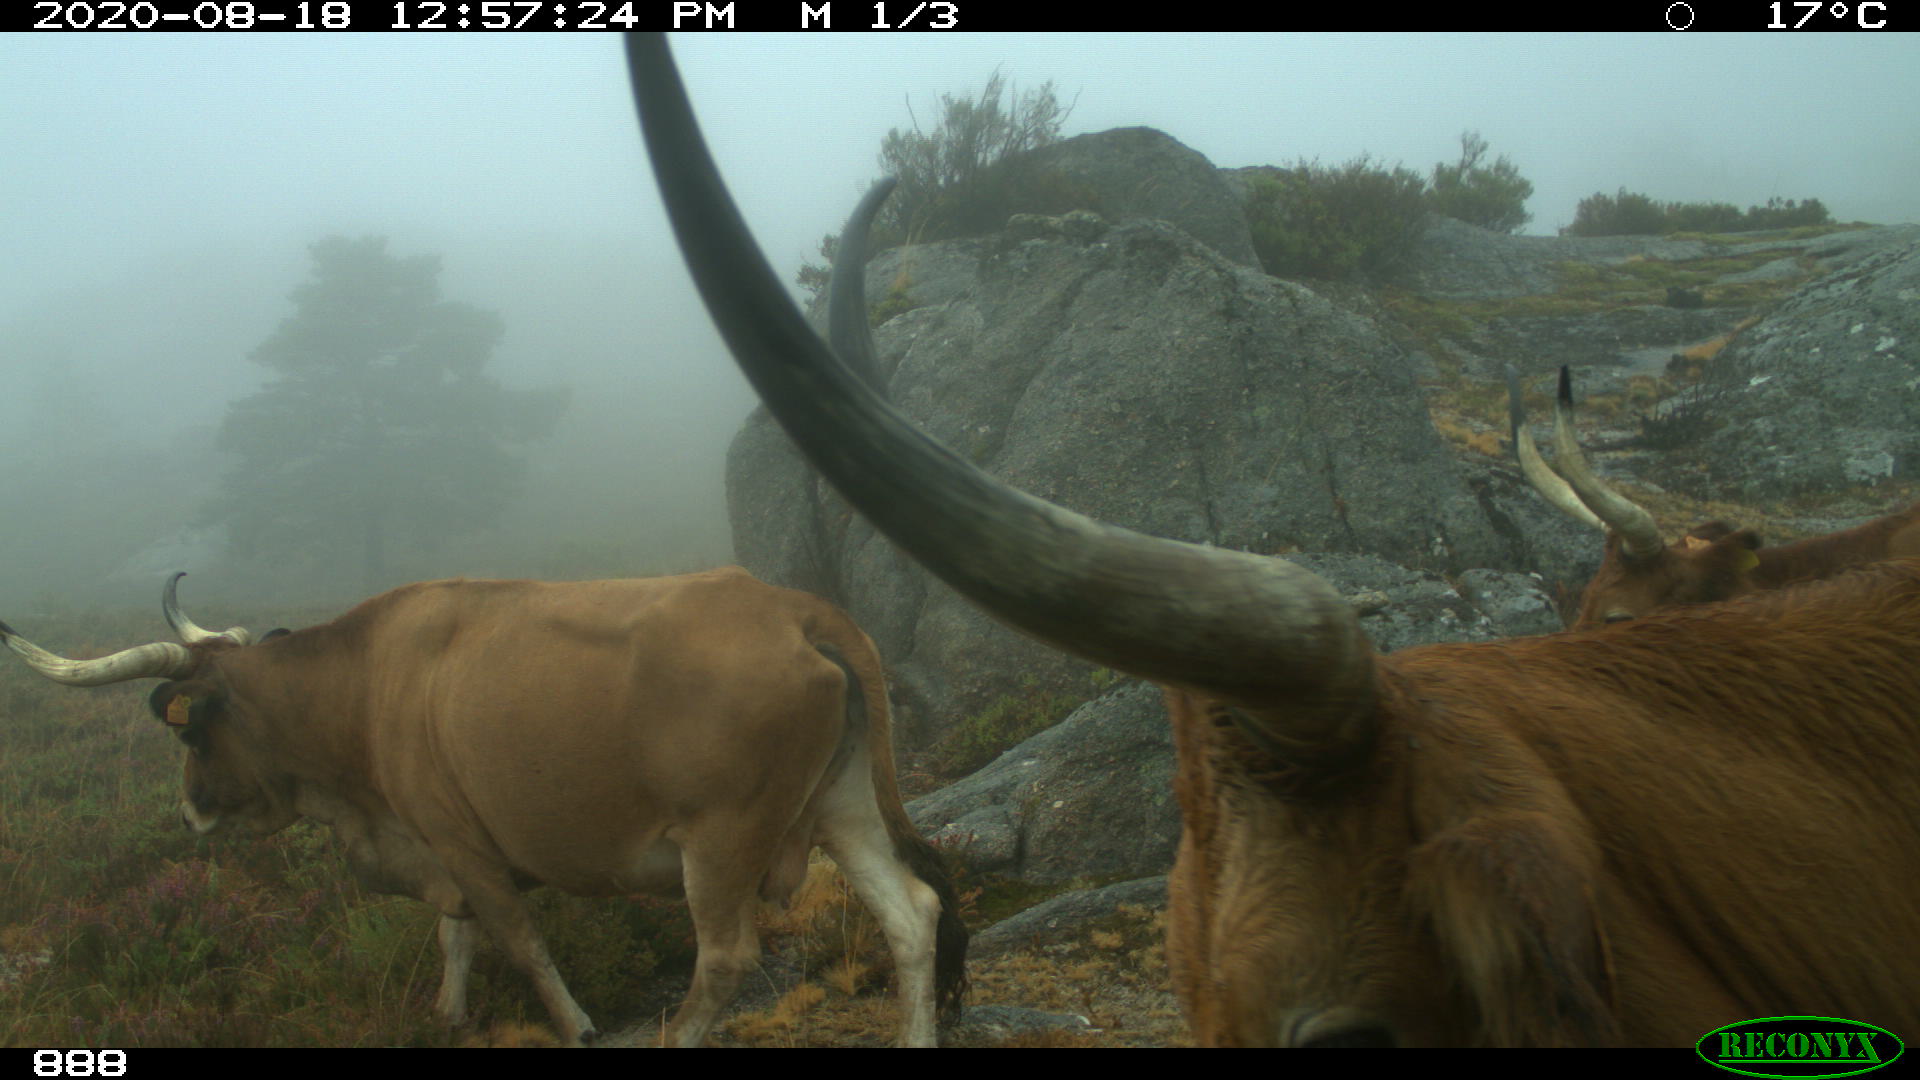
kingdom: Animalia
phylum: Chordata
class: Mammalia
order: Artiodactyla
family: Bovidae
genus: Bos
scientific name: Bos taurus
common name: Domesticated cattle
